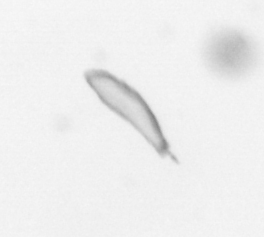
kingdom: Chromista
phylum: Ochrophyta
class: Bacillariophyceae
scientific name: Bacillariophyceae
